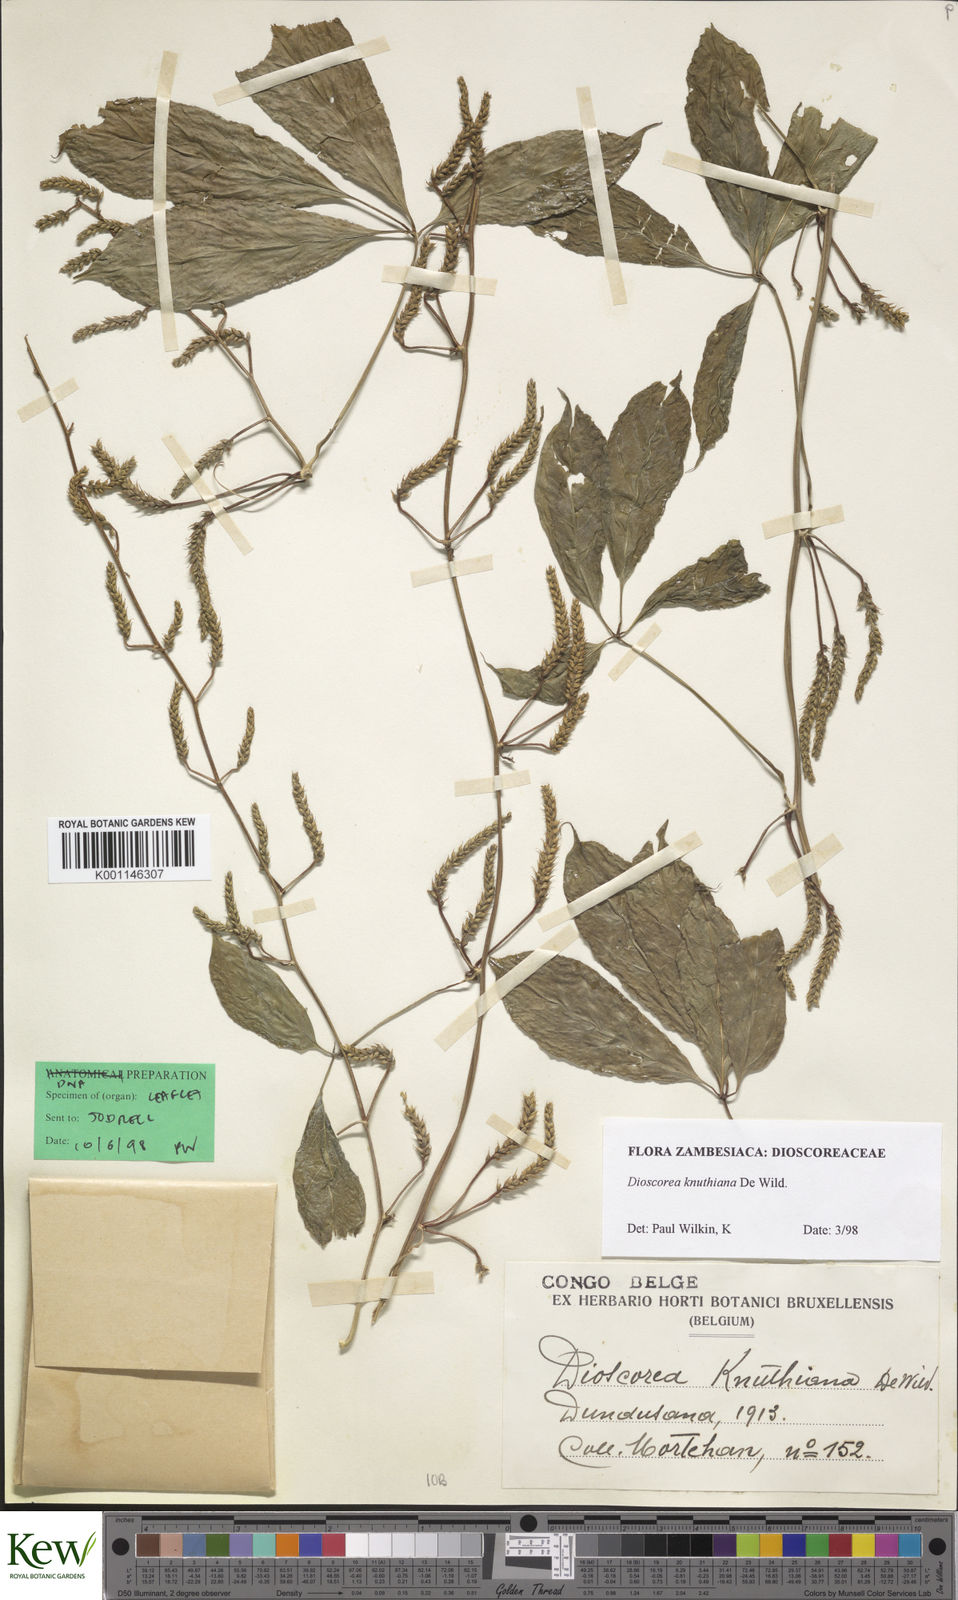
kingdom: Plantae
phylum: Tracheophyta
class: Liliopsida
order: Dioscoreales
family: Dioscoreaceae
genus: Dioscorea
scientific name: Dioscorea knuthiana
